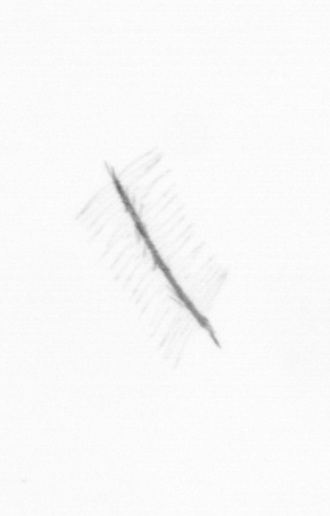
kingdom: Chromista
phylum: Ochrophyta
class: Bacillariophyceae
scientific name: Bacillariophyceae
